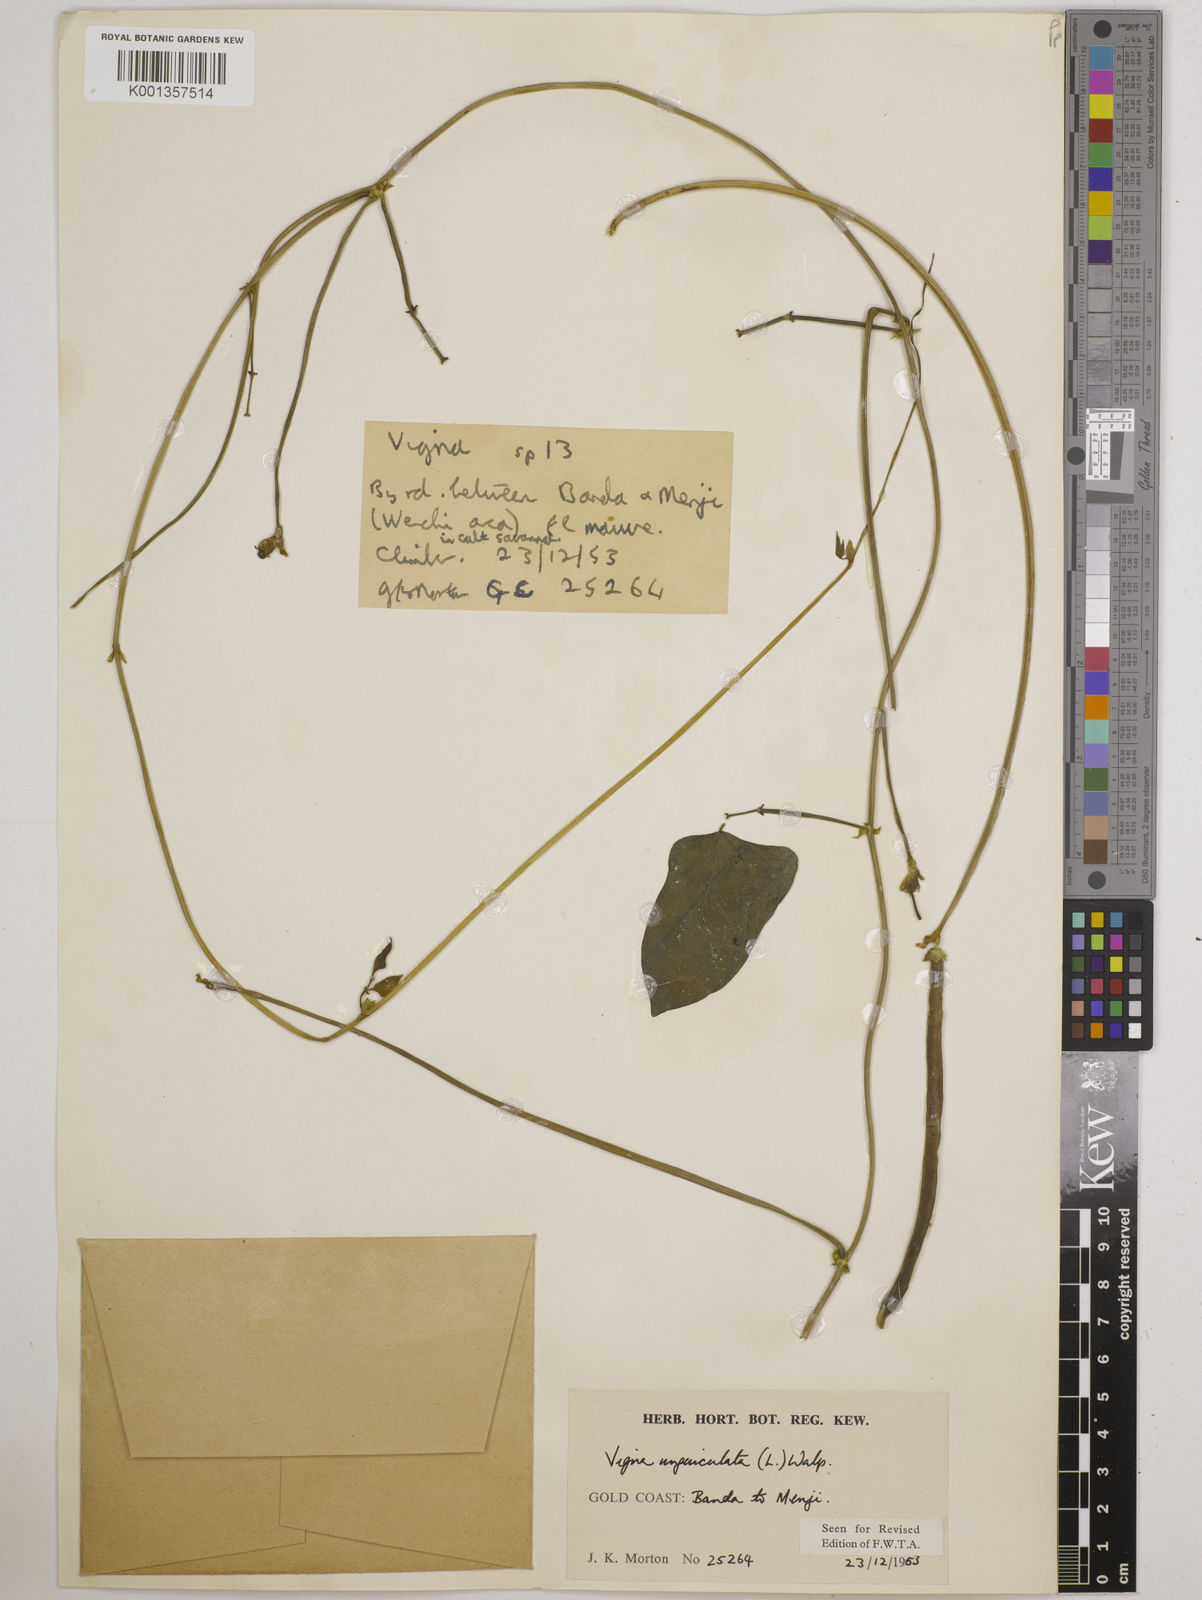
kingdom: Plantae
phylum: Tracheophyta
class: Magnoliopsida
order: Fabales
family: Fabaceae
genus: Vigna
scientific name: Vigna
